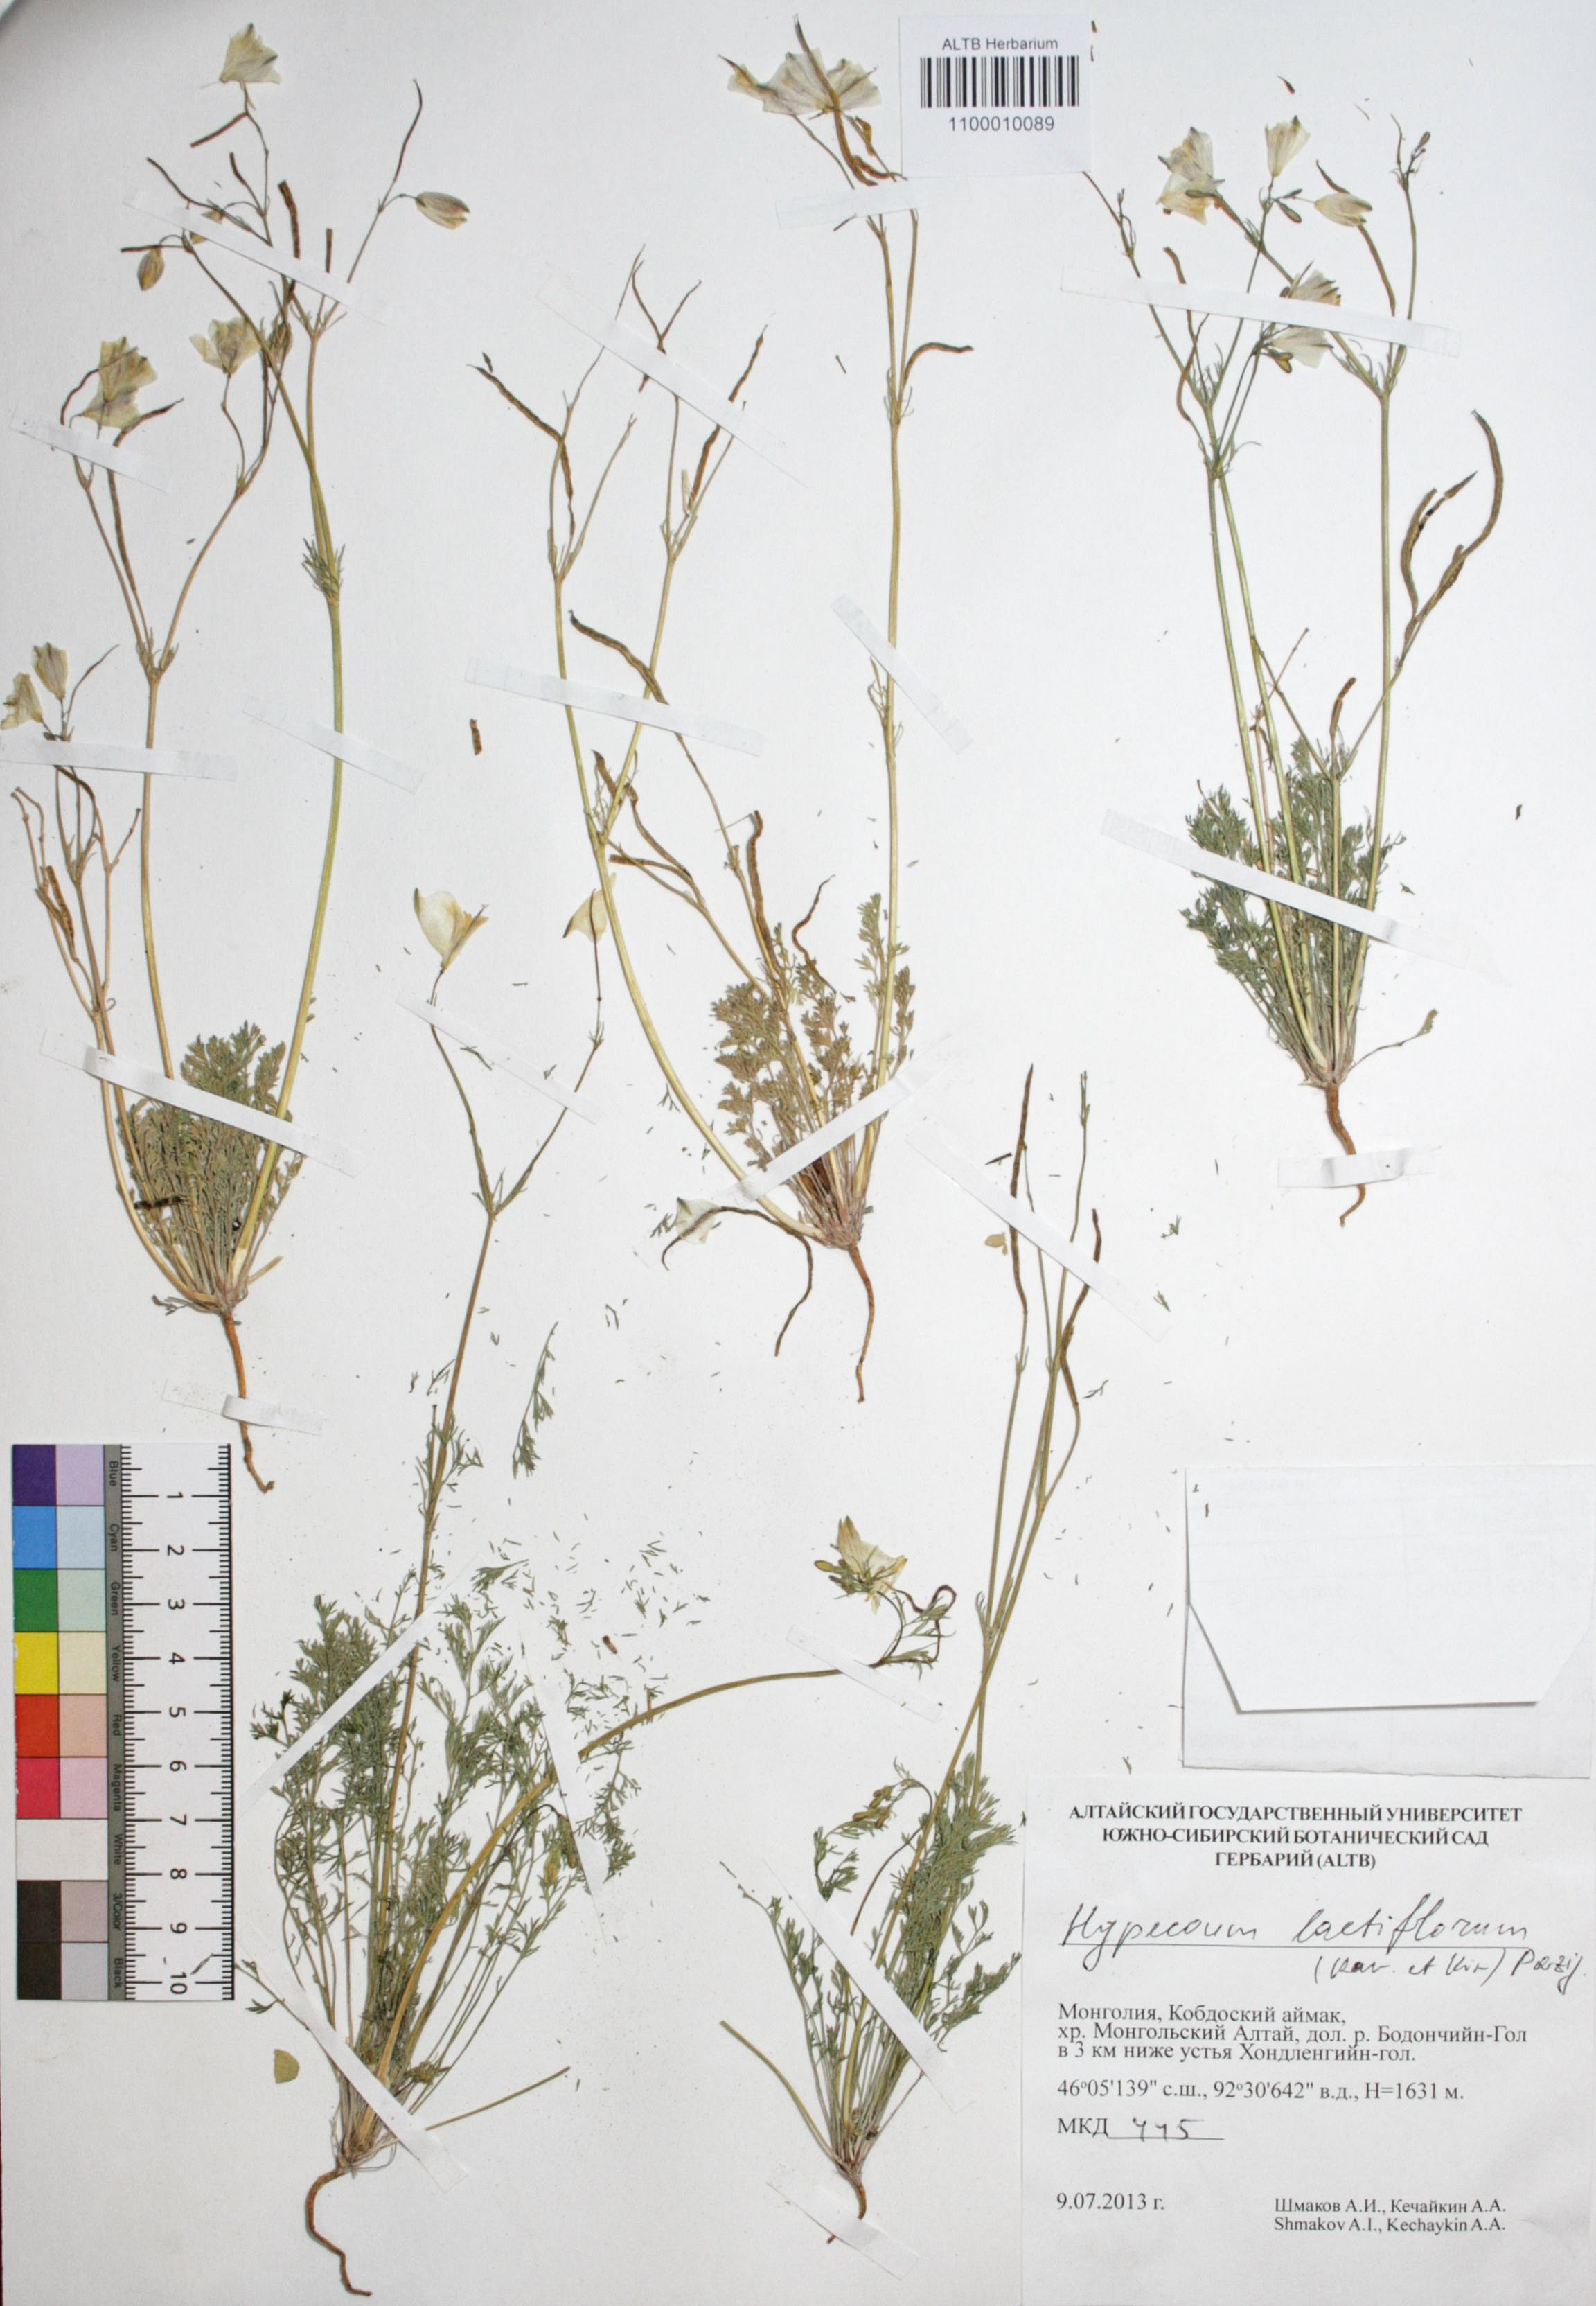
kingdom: Plantae
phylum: Tracheophyta
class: Magnoliopsida
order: Ranunculales
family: Papaveraceae
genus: Hypecoum
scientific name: Hypecoum lactiflorum
